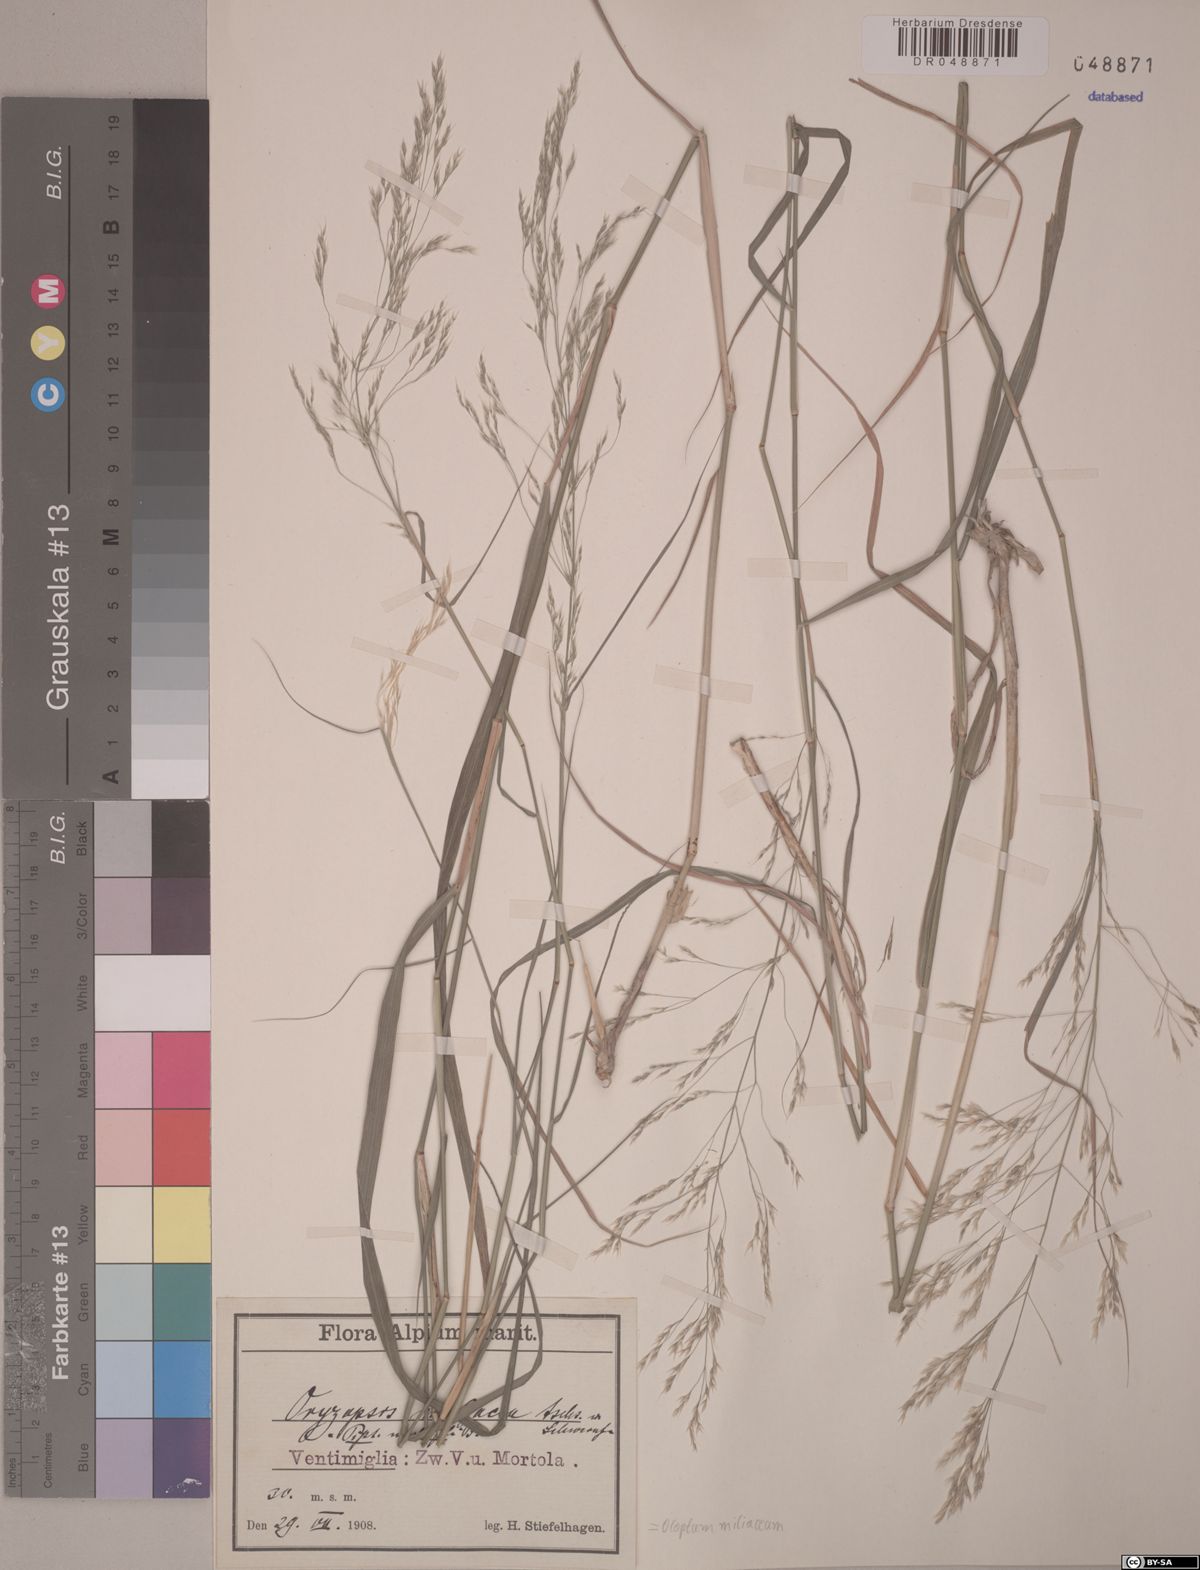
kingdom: Plantae
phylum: Tracheophyta
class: Liliopsida
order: Poales
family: Poaceae
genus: Oloptum
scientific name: Oloptum miliaceum
